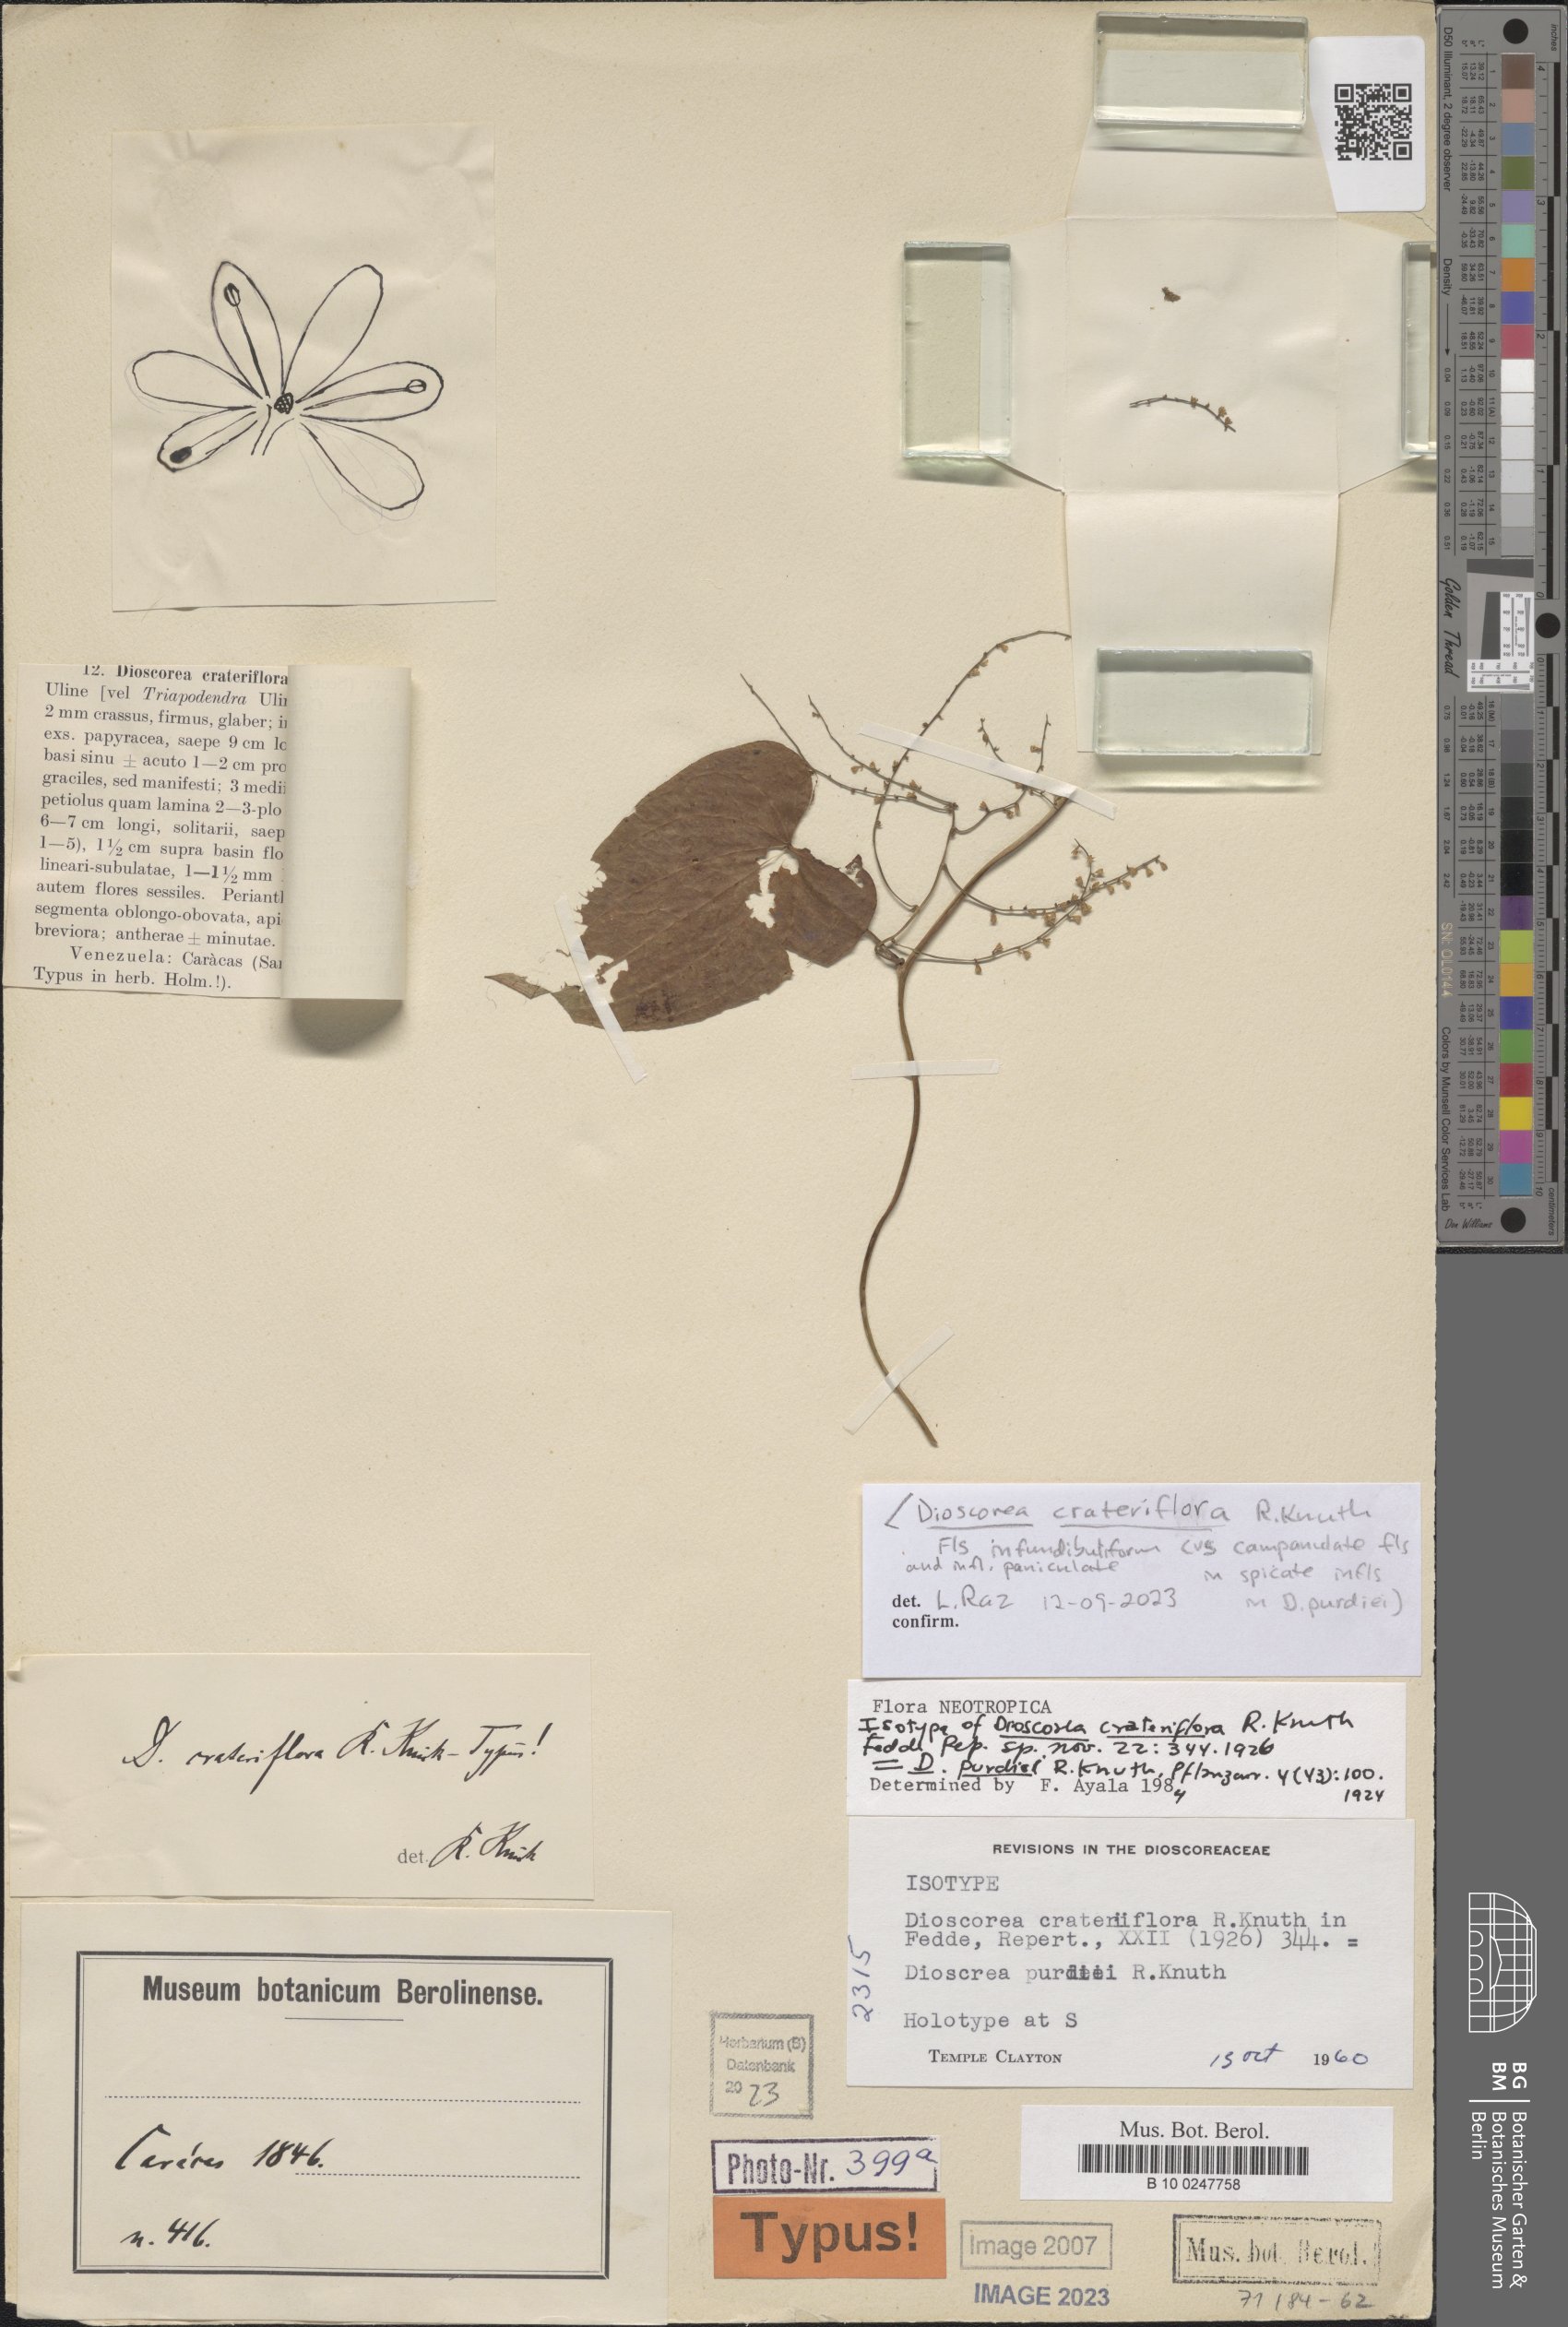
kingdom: Plantae
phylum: Tracheophyta
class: Liliopsida
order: Dioscoreales
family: Dioscoreaceae
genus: Dioscorea
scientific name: Dioscorea crateriflora
